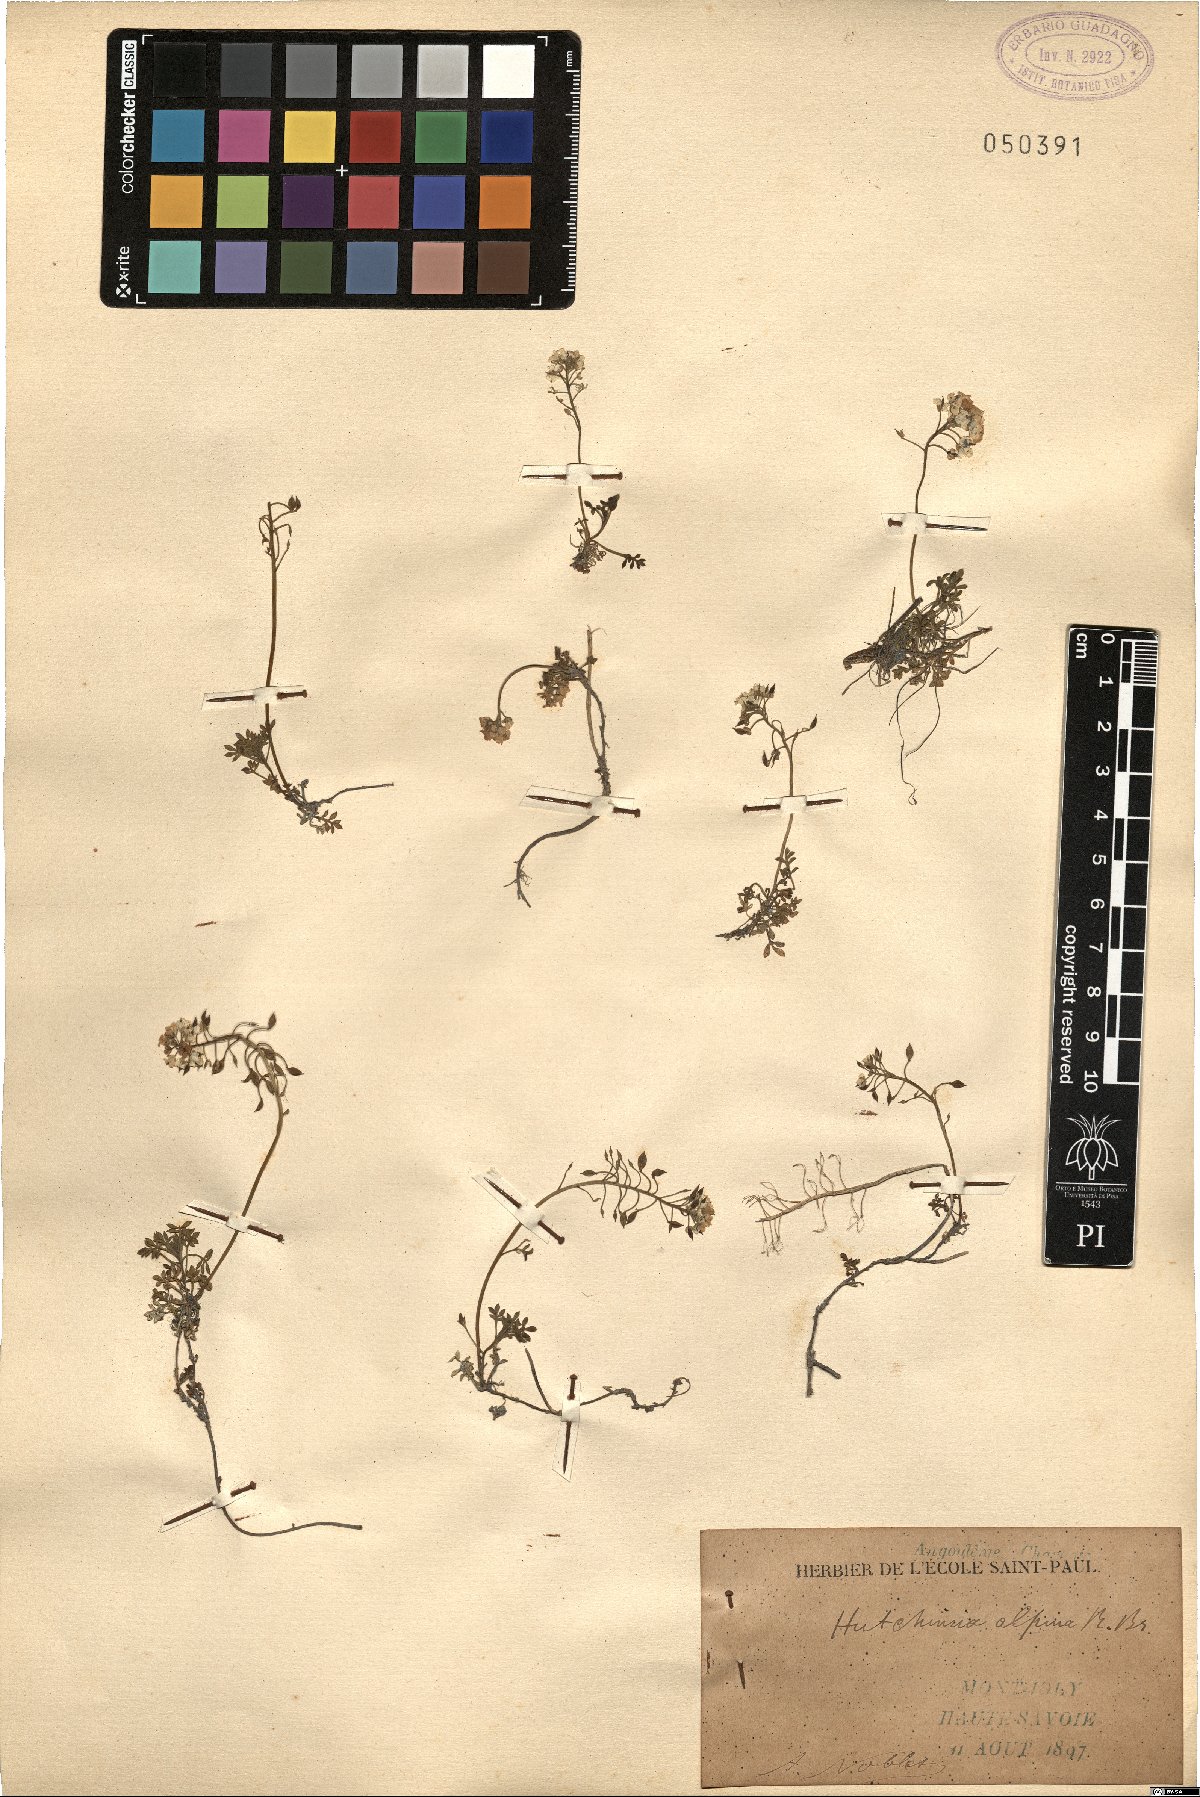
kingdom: Plantae
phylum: Tracheophyta
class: Magnoliopsida
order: Brassicales
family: Brassicaceae
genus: Hornungia
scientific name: Hornungia alpina
